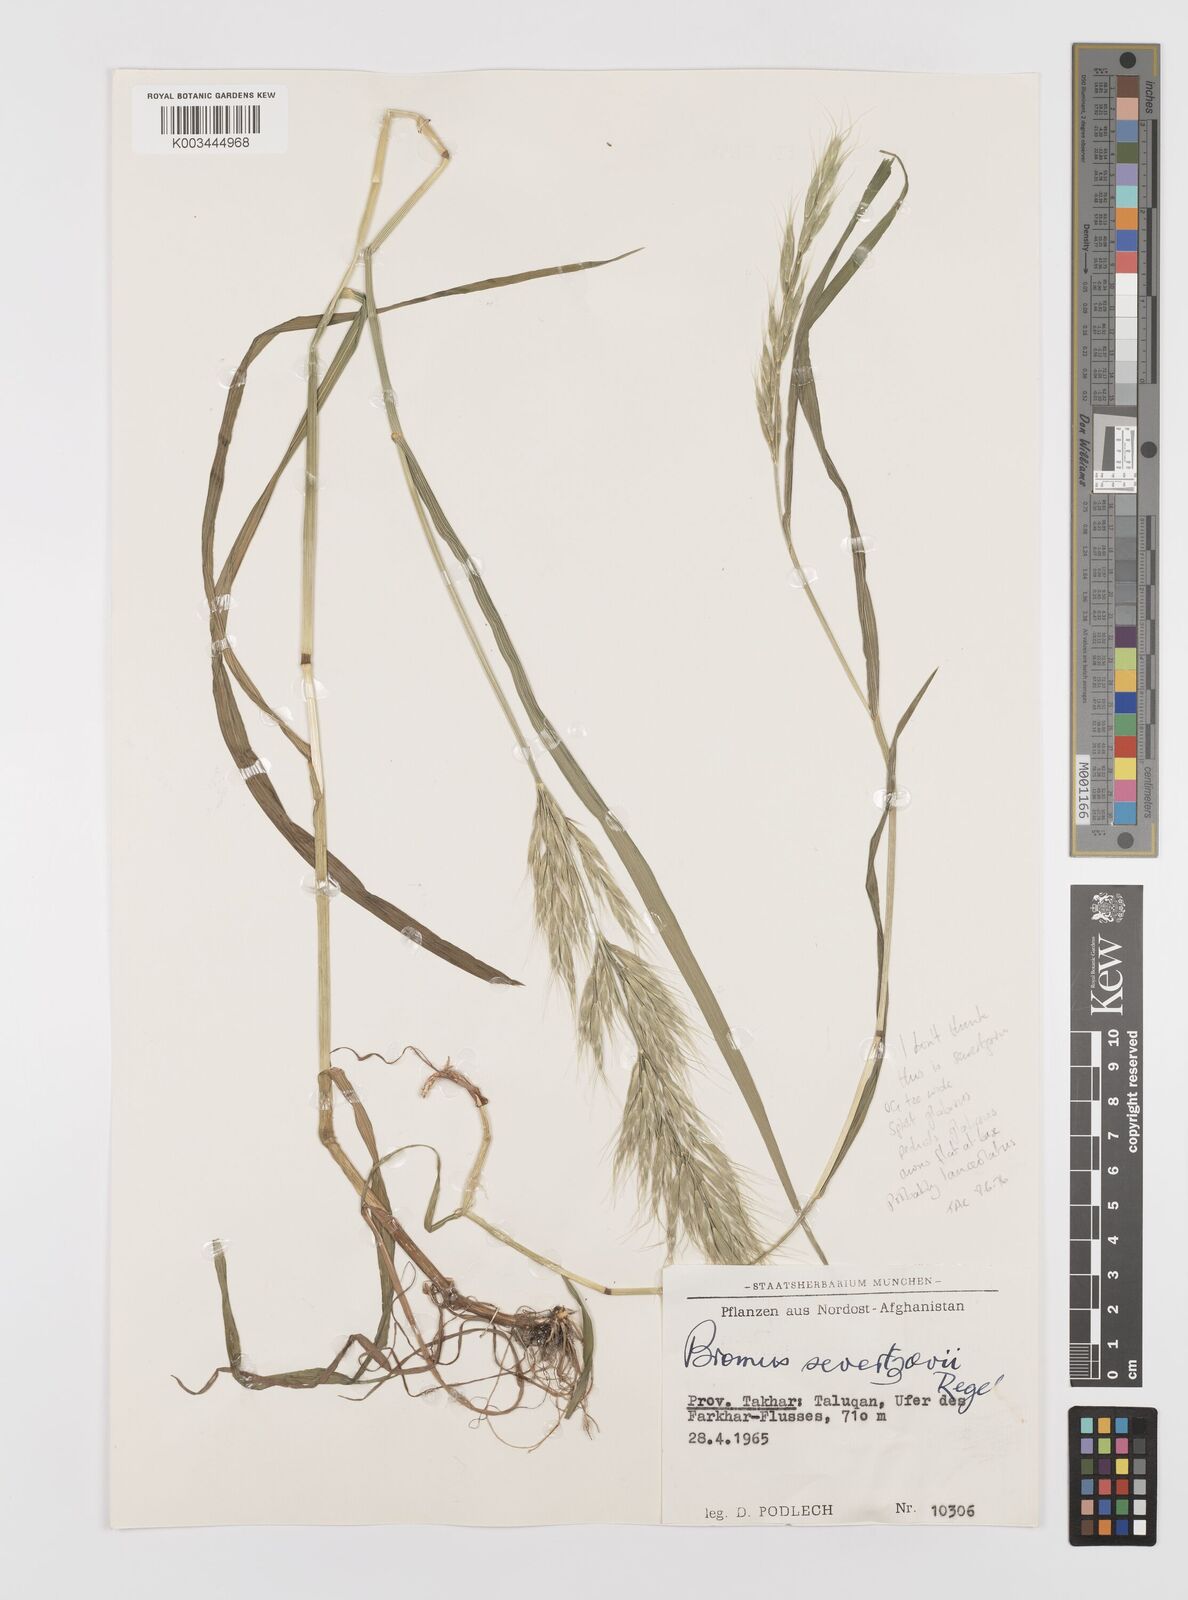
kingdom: Plantae
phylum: Tracheophyta
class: Liliopsida
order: Poales
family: Poaceae
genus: Bromus
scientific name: Bromus lanceolatus
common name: Mediterranean brome
